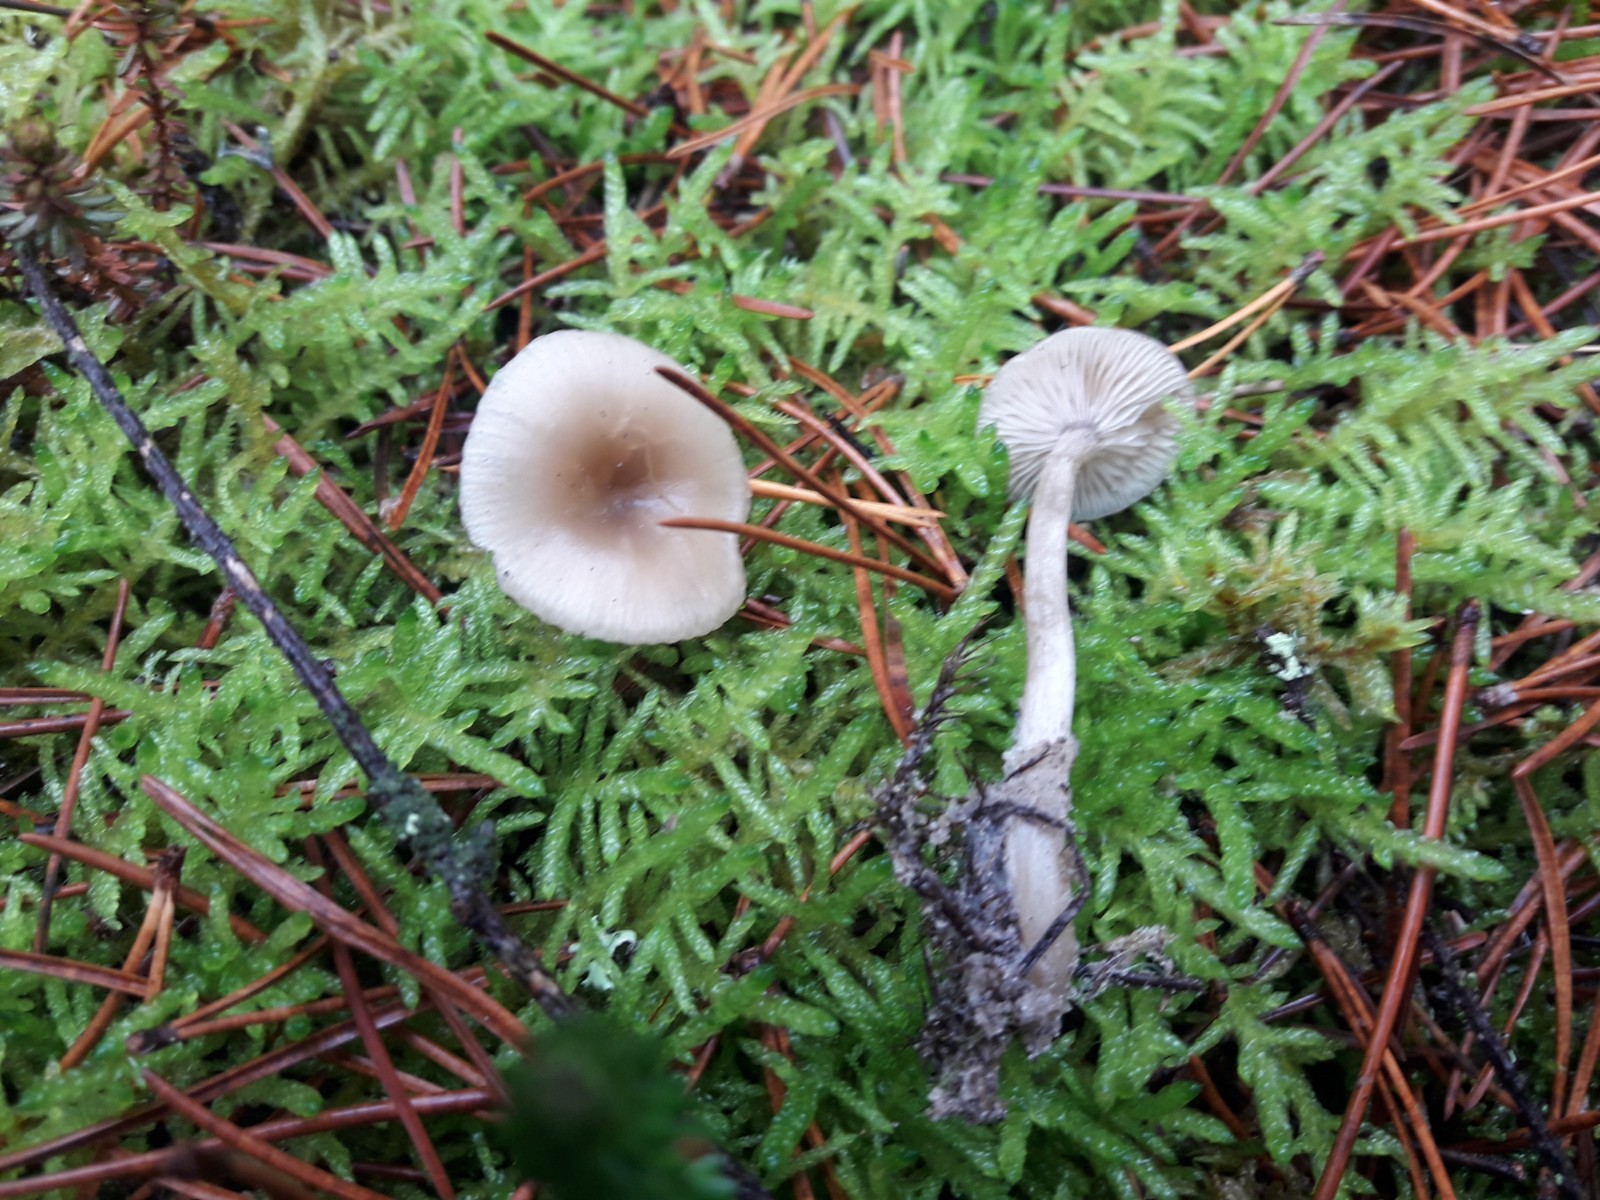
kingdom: Fungi
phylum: Basidiomycota
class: Agaricomycetes
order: Agaricales
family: Tricholomataceae
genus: Clitocybe
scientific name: Clitocybe fragrans
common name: vellugtende tragthat
